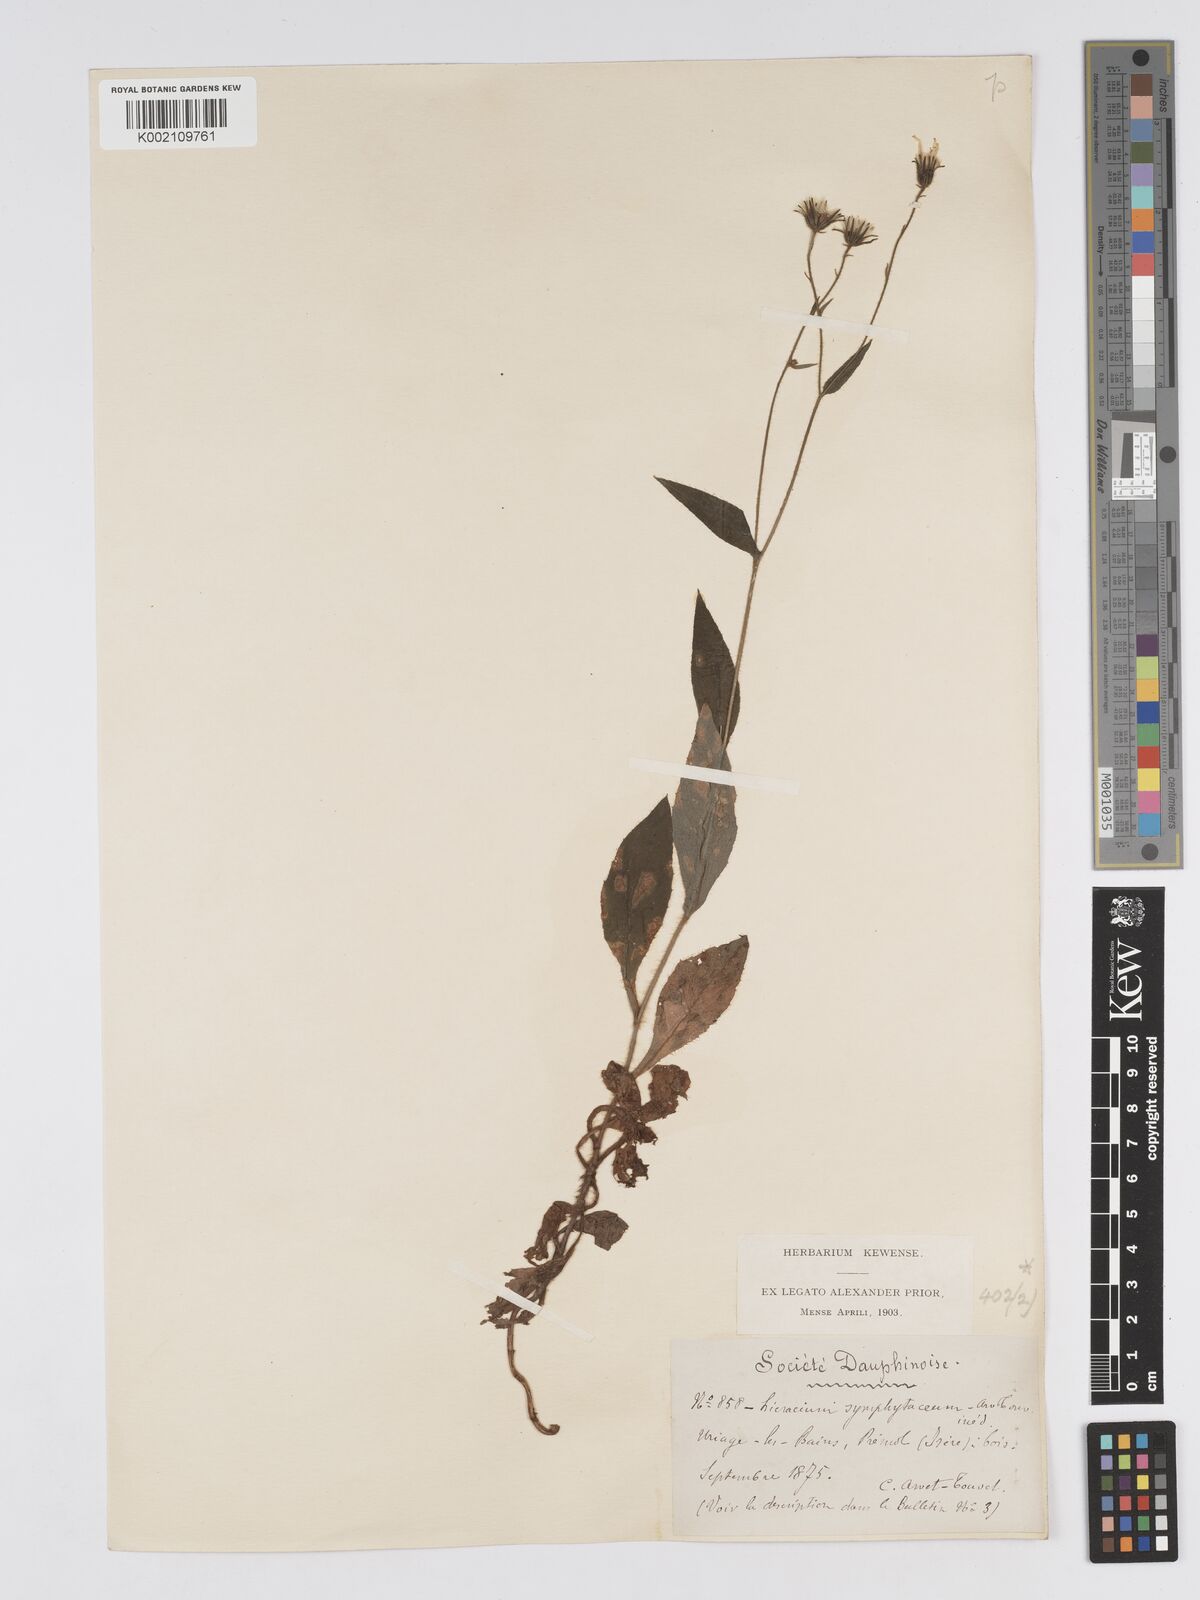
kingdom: Plantae
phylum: Tracheophyta
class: Magnoliopsida
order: Asterales
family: Asteraceae
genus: Hieracium
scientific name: Hieracium symphytaceum
